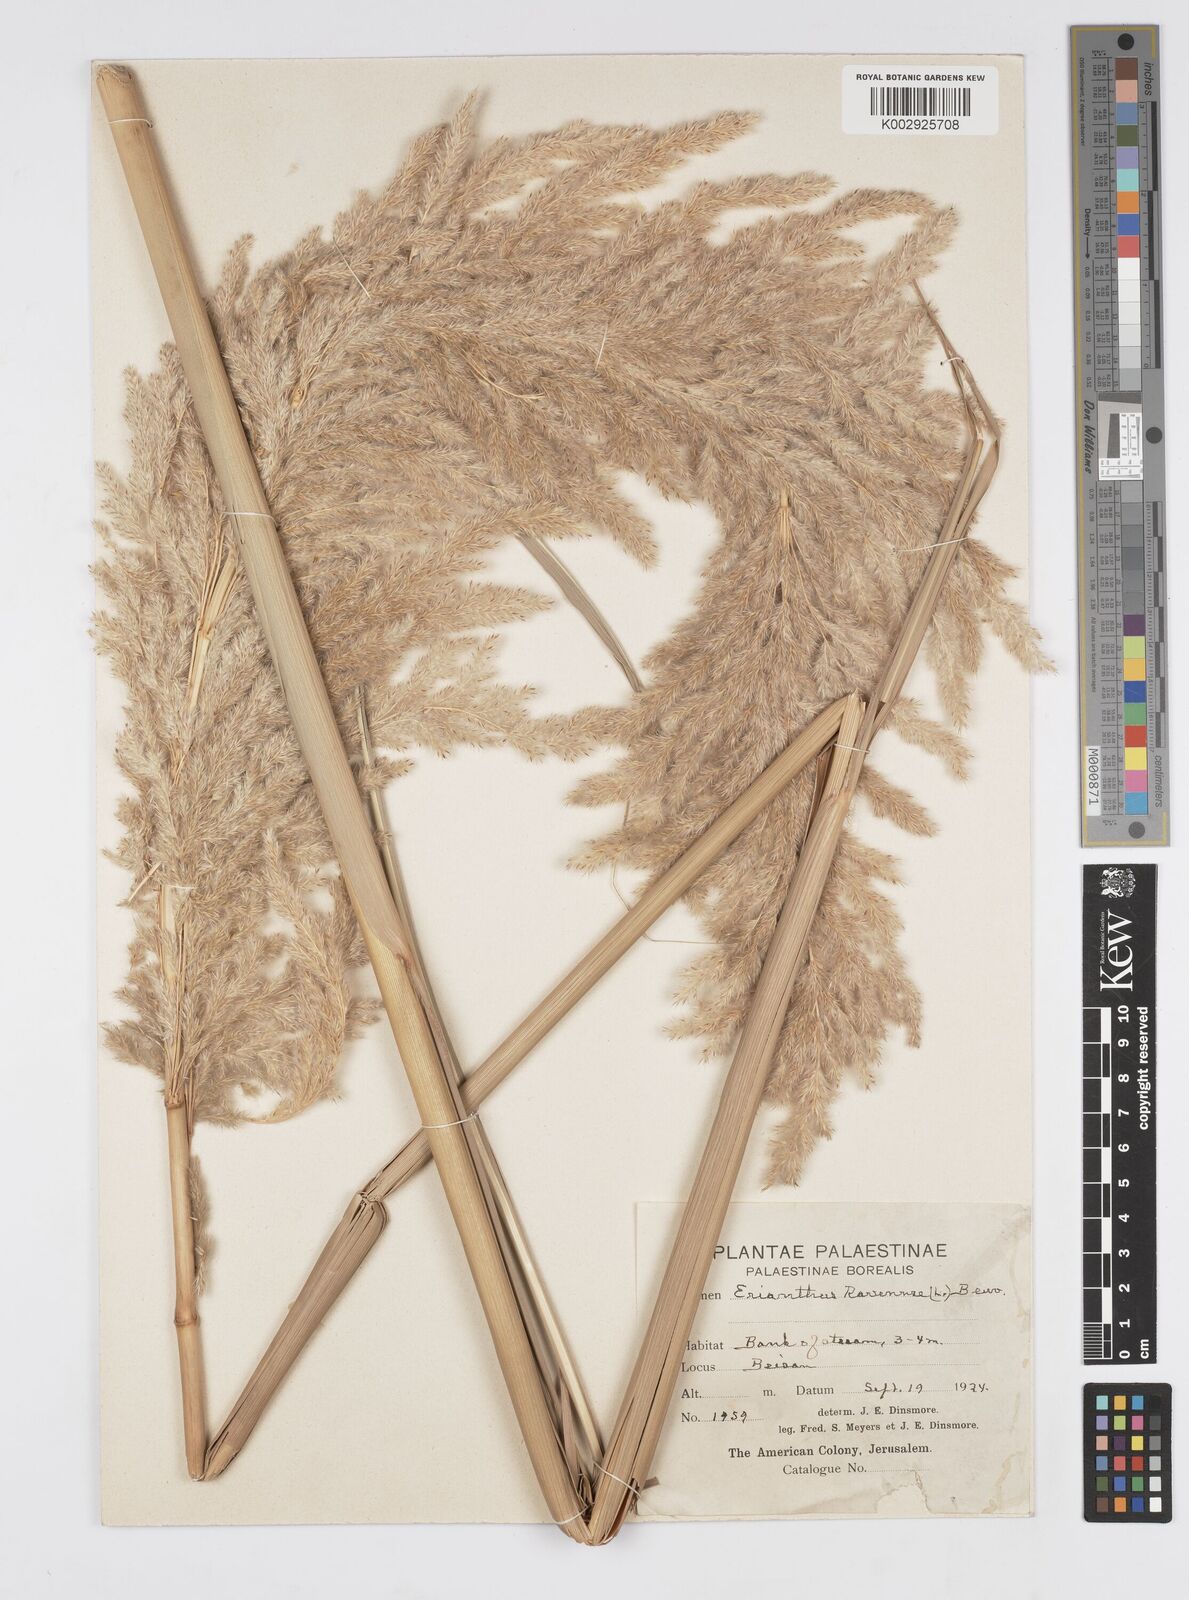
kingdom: Plantae
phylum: Tracheophyta
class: Liliopsida
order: Poales
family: Poaceae
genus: Tripidium
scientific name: Tripidium ravennae
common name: Ravenna grass
